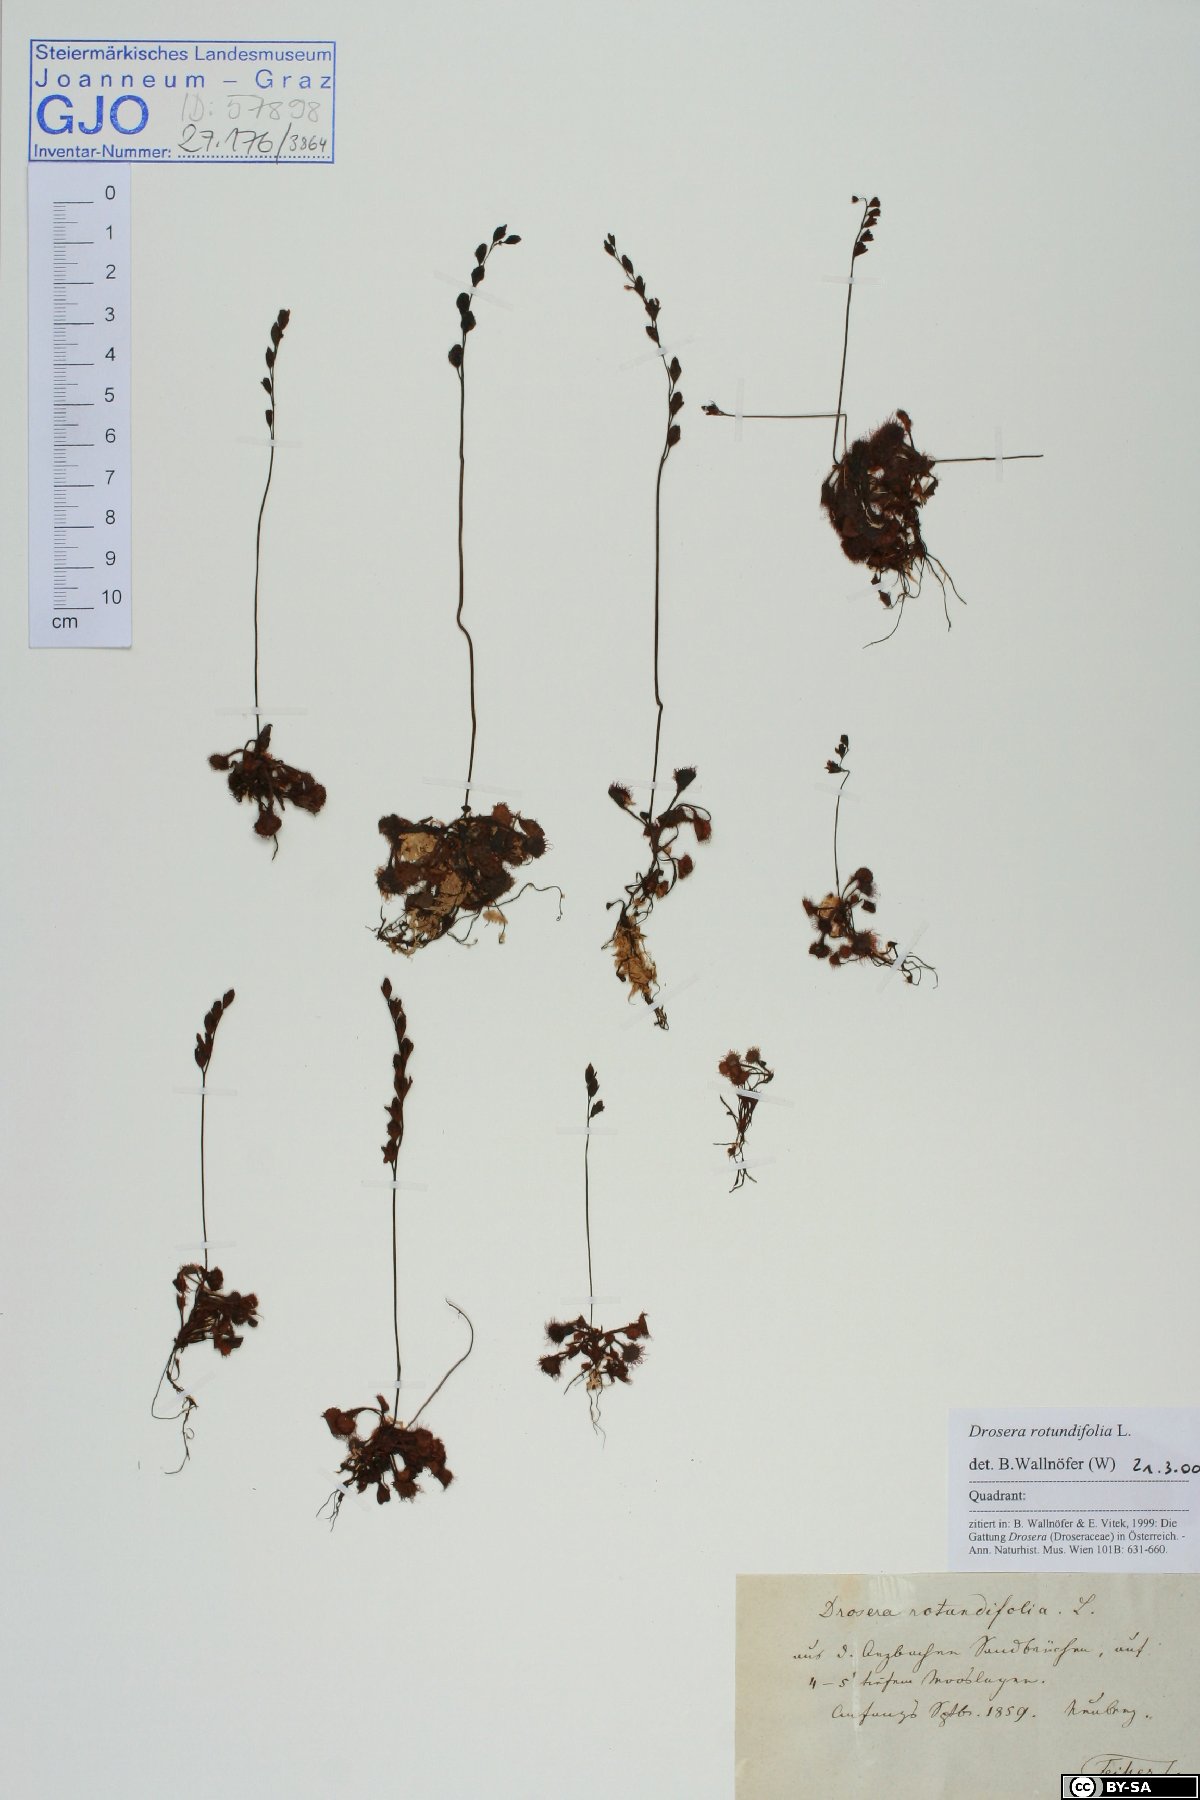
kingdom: Plantae
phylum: Tracheophyta
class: Magnoliopsida
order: Caryophyllales
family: Droseraceae
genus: Drosera
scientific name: Drosera rotundifolia
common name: Round-leaved sundew
